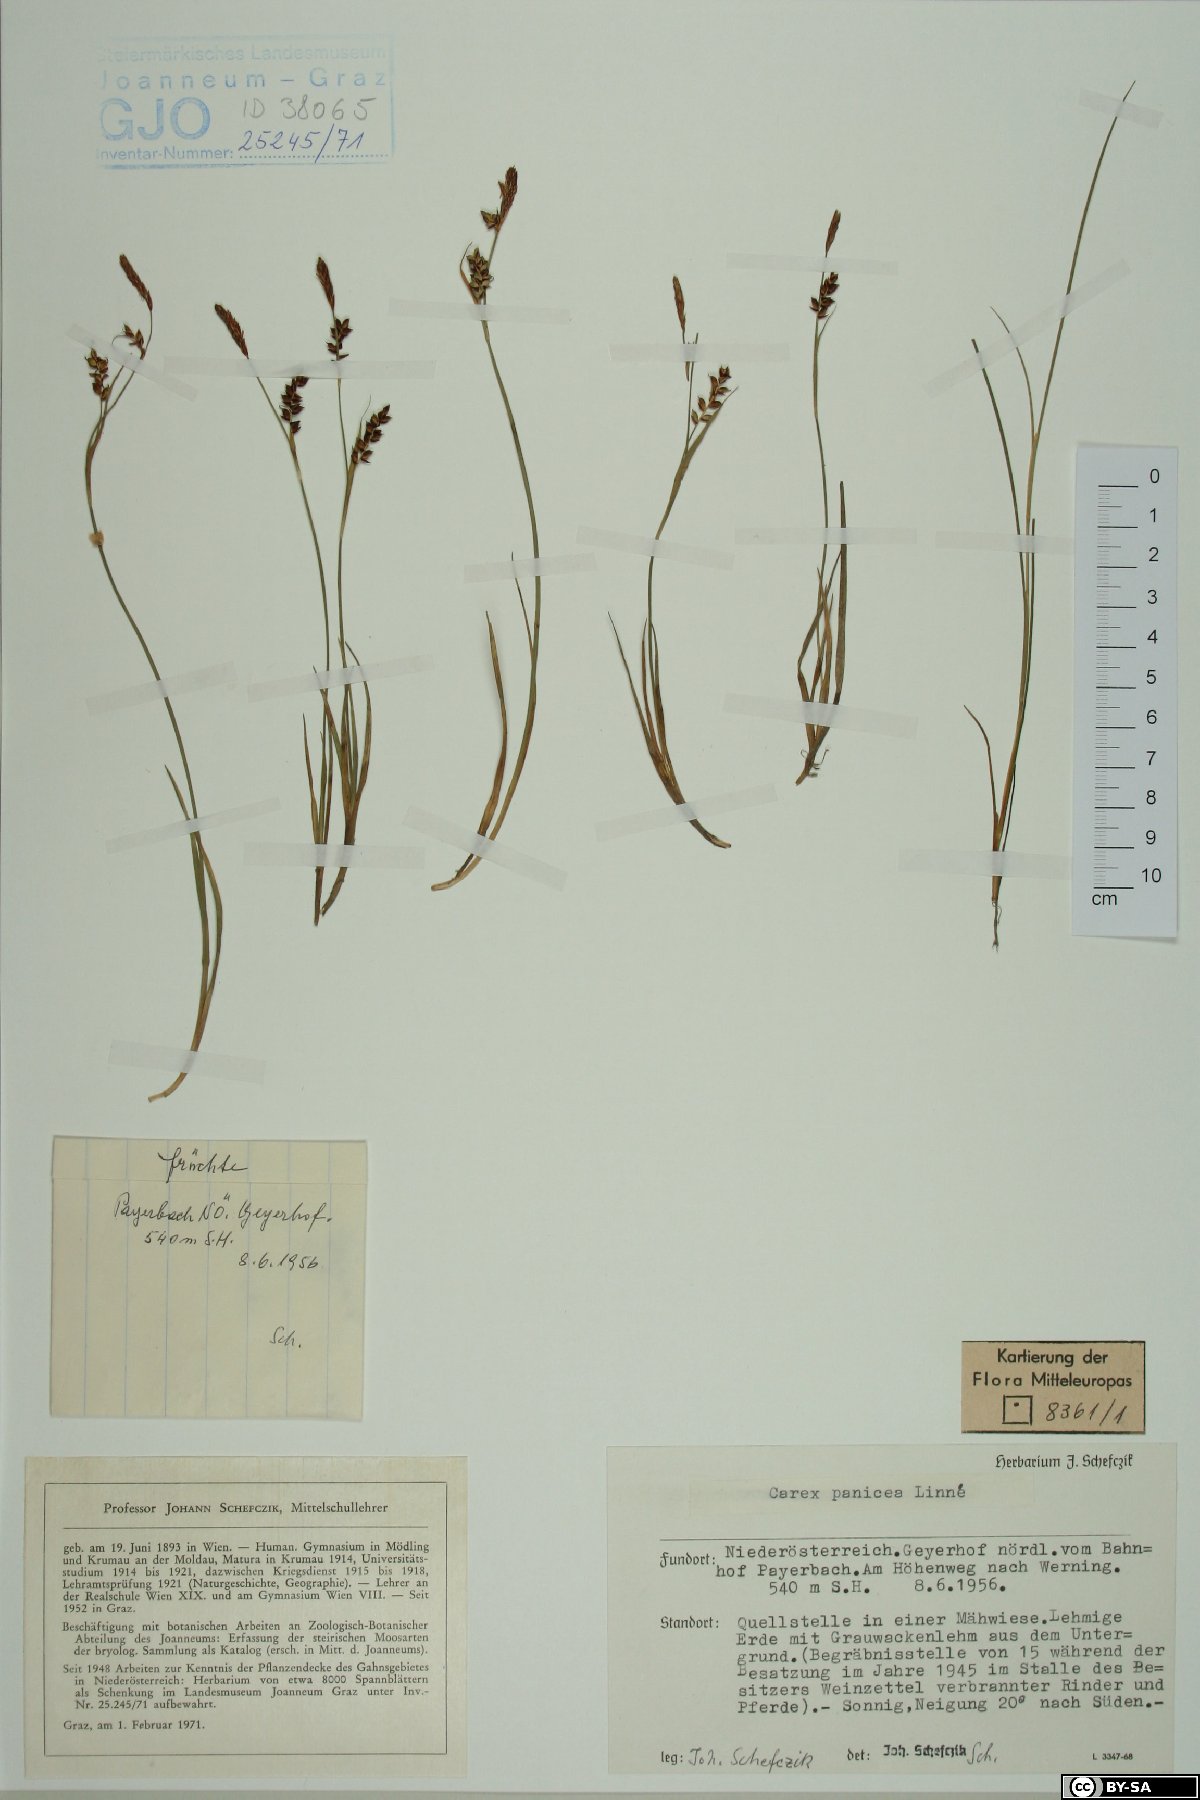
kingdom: Plantae
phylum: Tracheophyta
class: Liliopsida
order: Poales
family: Cyperaceae
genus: Carex
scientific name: Carex panicea
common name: Carnation sedge
